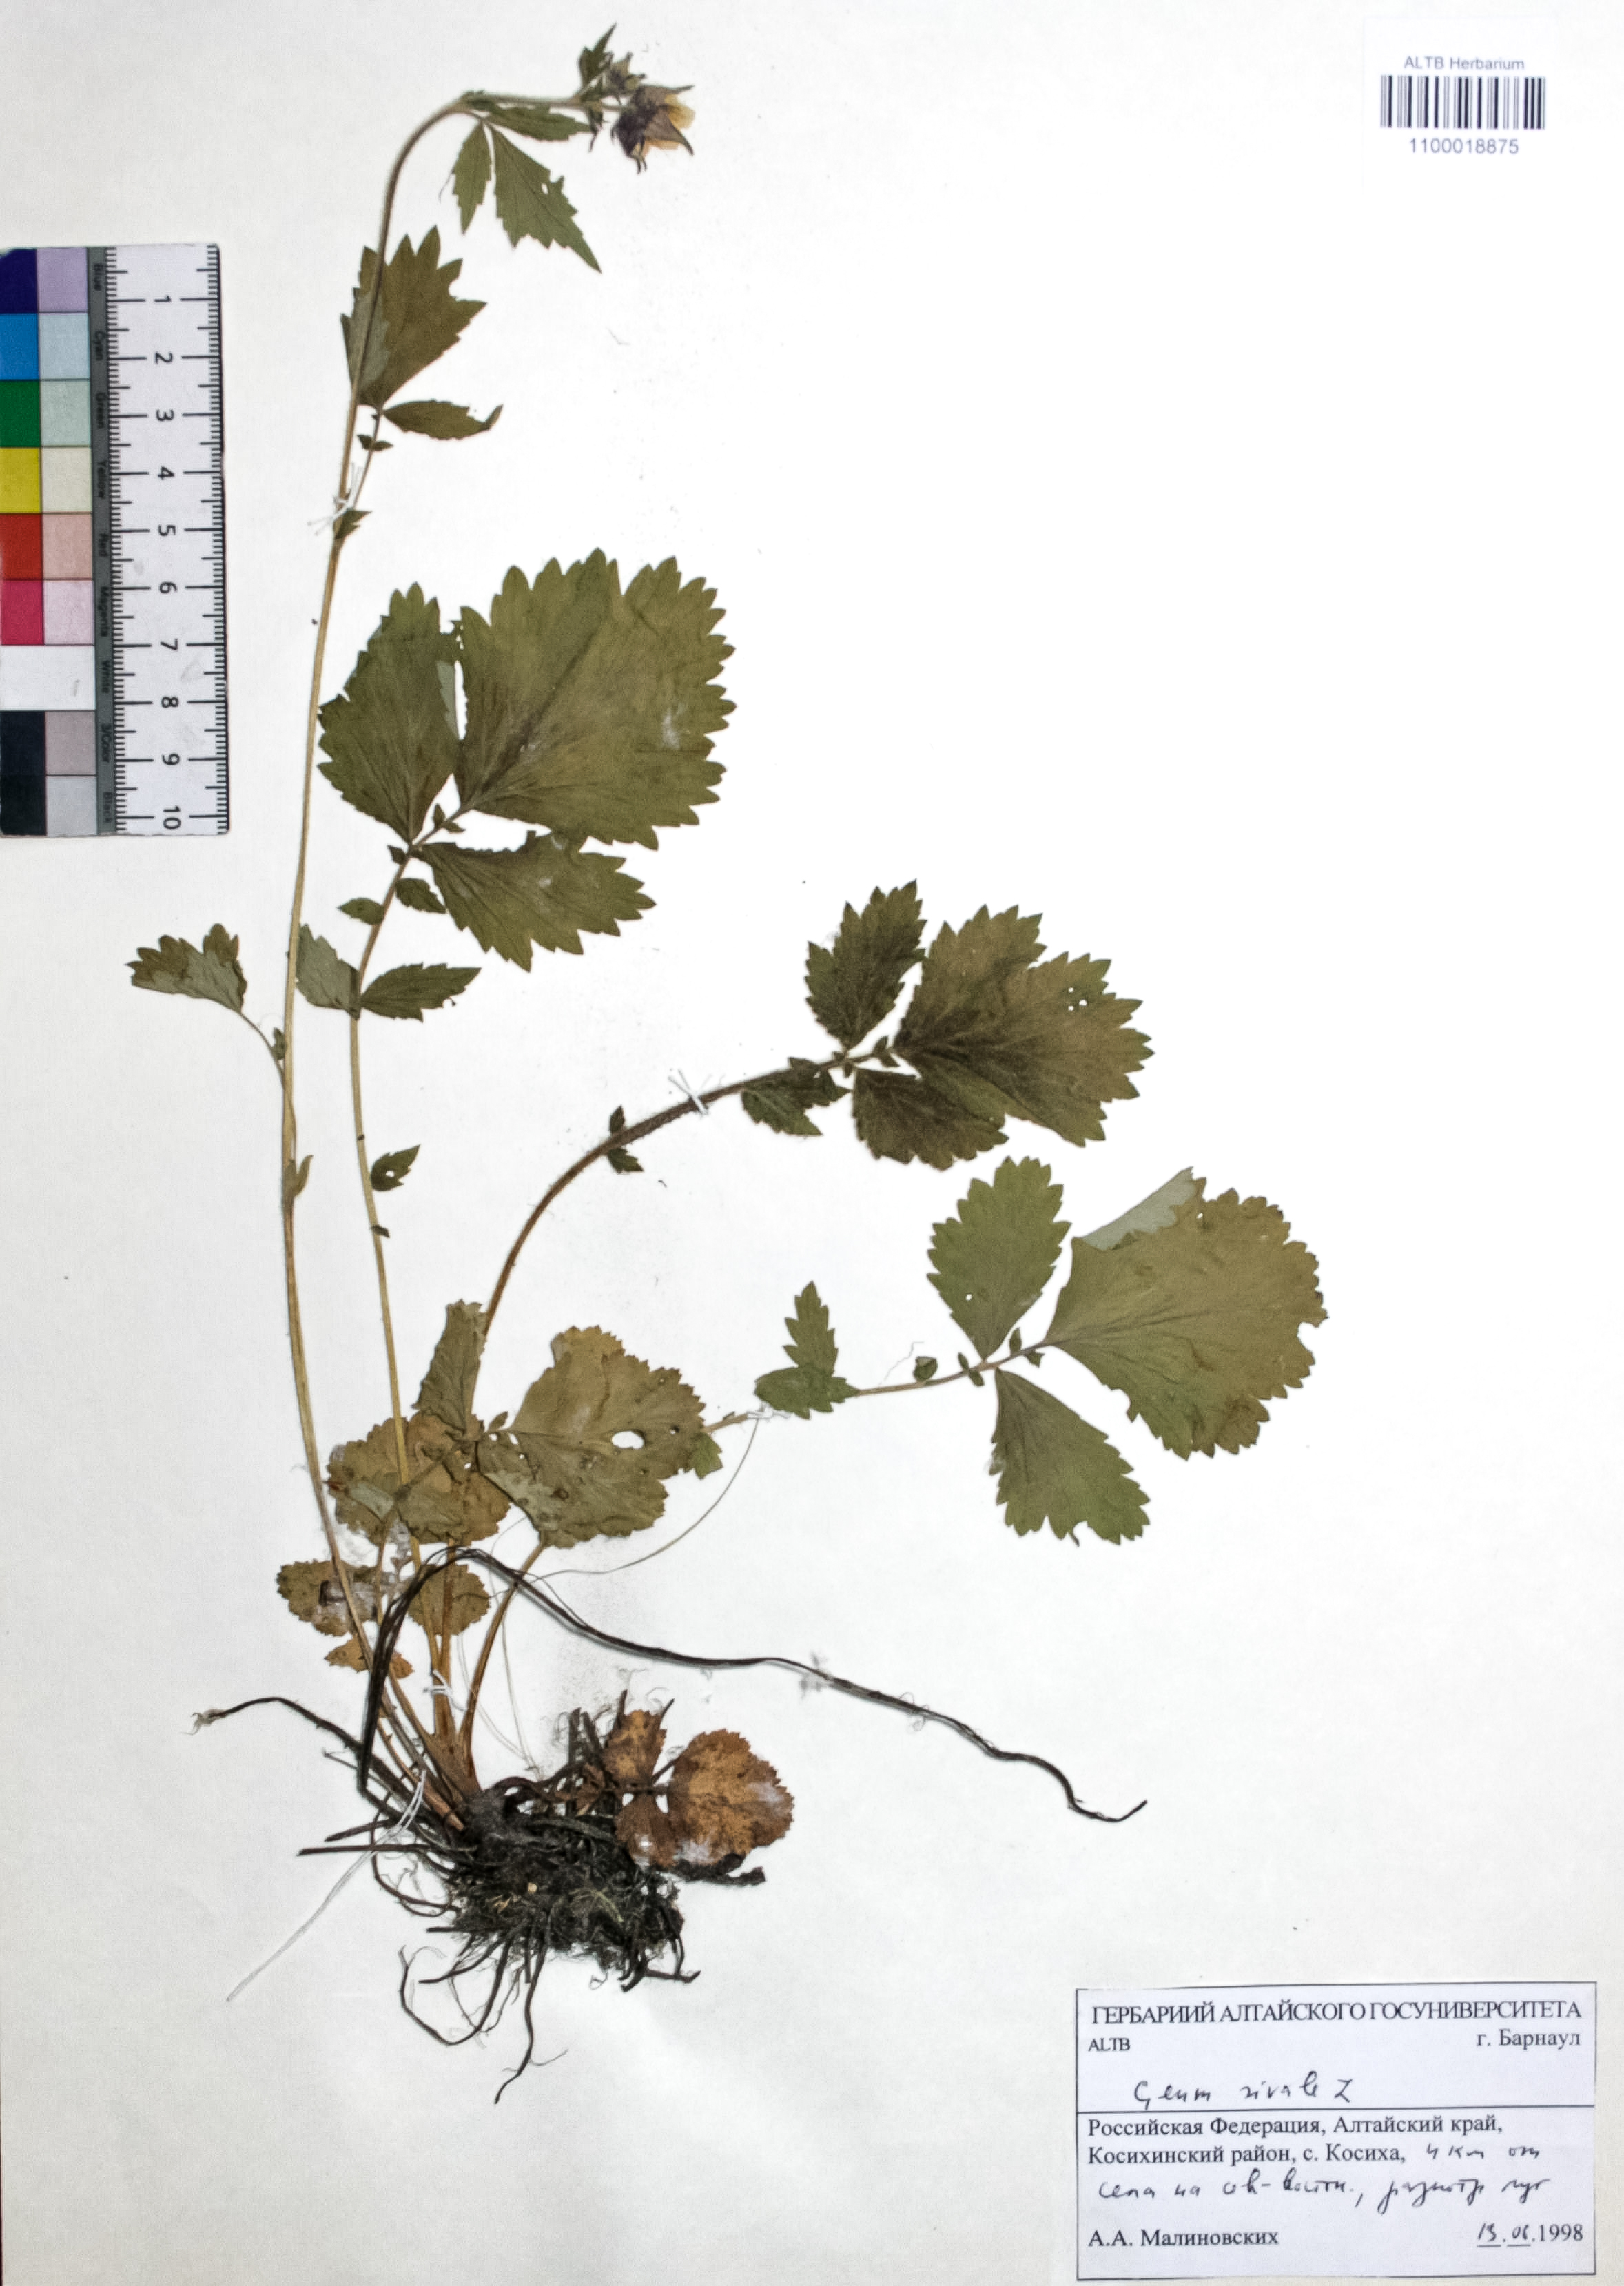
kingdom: Plantae
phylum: Tracheophyta
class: Magnoliopsida
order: Rosales
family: Rosaceae
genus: Geum
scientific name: Geum rivale
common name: Water avens
